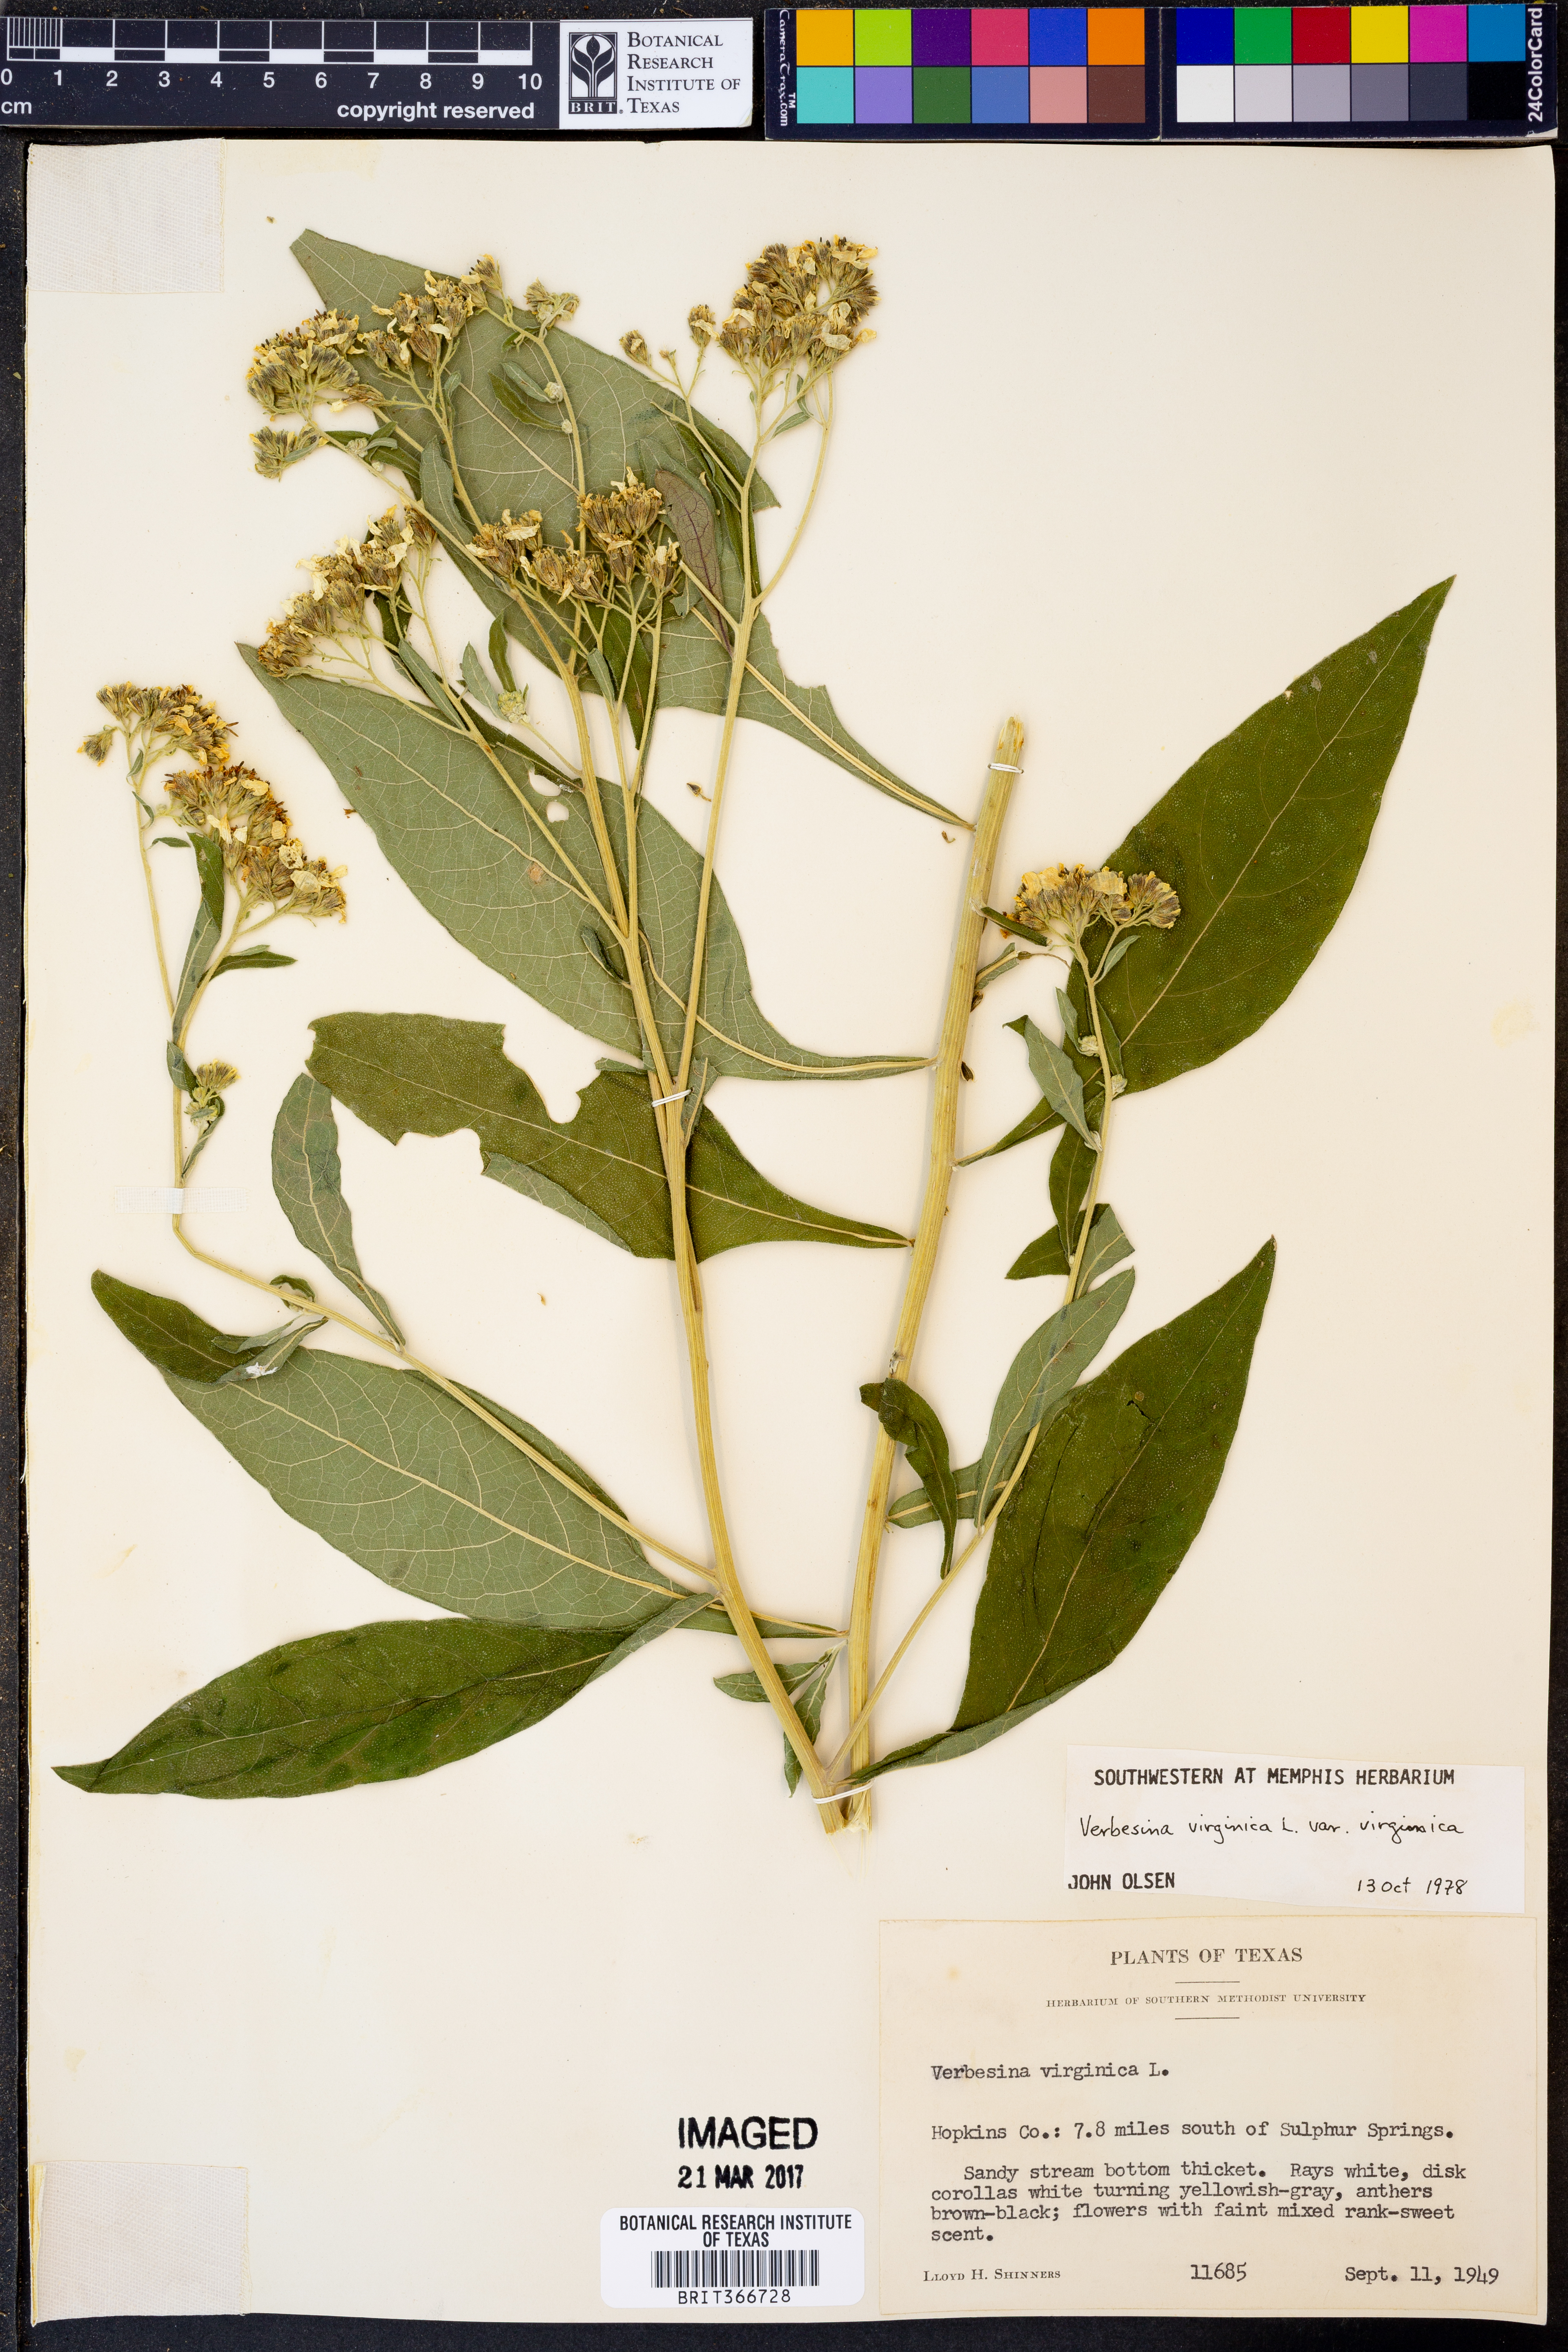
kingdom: Plantae
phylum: Tracheophyta
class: Magnoliopsida
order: Asterales
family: Asteraceae
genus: Verbesina
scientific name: Verbesina virginica
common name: Frostweed
